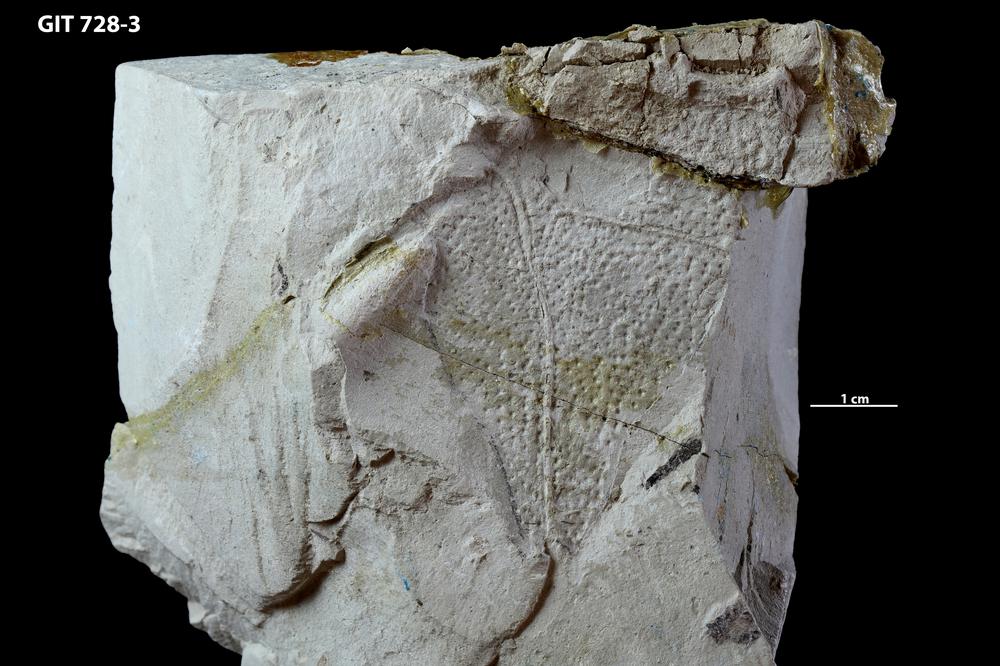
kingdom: Animalia
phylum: Chordata
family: Coccosteidae
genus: Watsonosteus
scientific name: Watsonosteus
